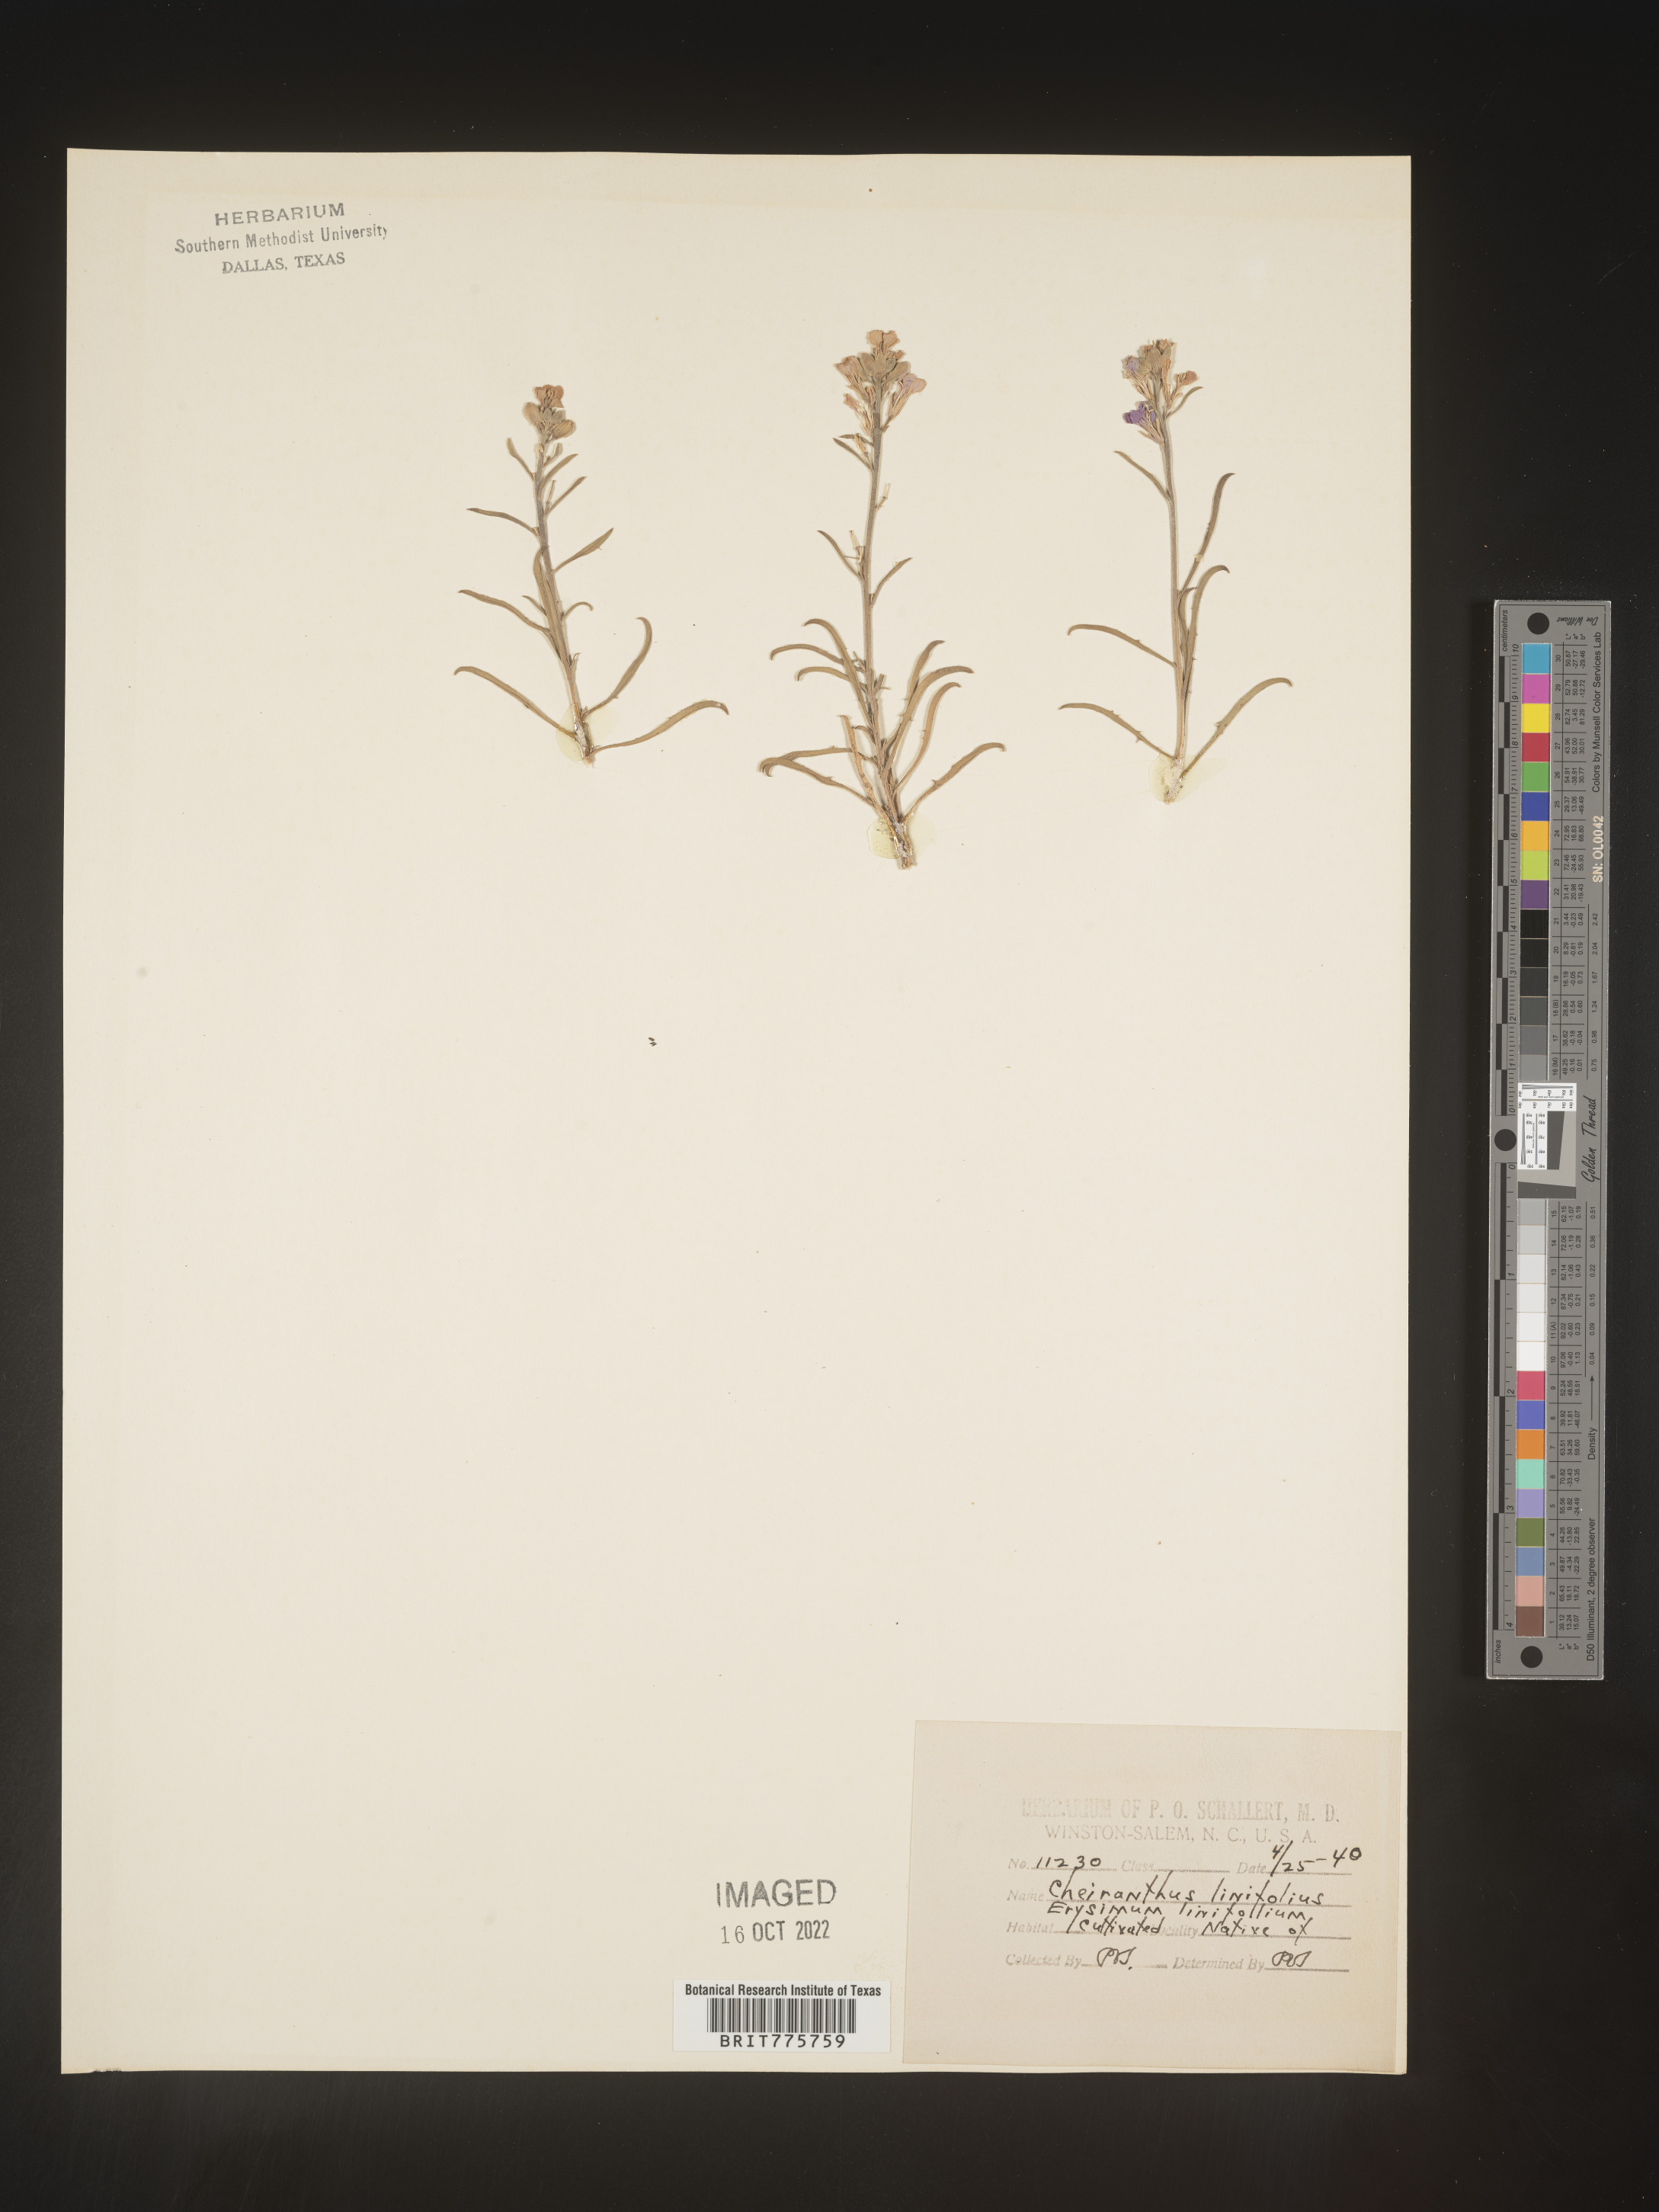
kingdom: Plantae
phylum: Tracheophyta
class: Magnoliopsida
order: Brassicales
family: Brassicaceae
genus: Erysimum
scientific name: Erysimum
